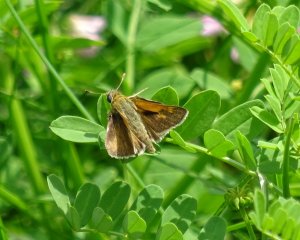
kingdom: Animalia
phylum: Arthropoda
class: Insecta
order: Lepidoptera
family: Hesperiidae
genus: Polites
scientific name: Polites themistocles
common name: Tawny-edged Skipper
